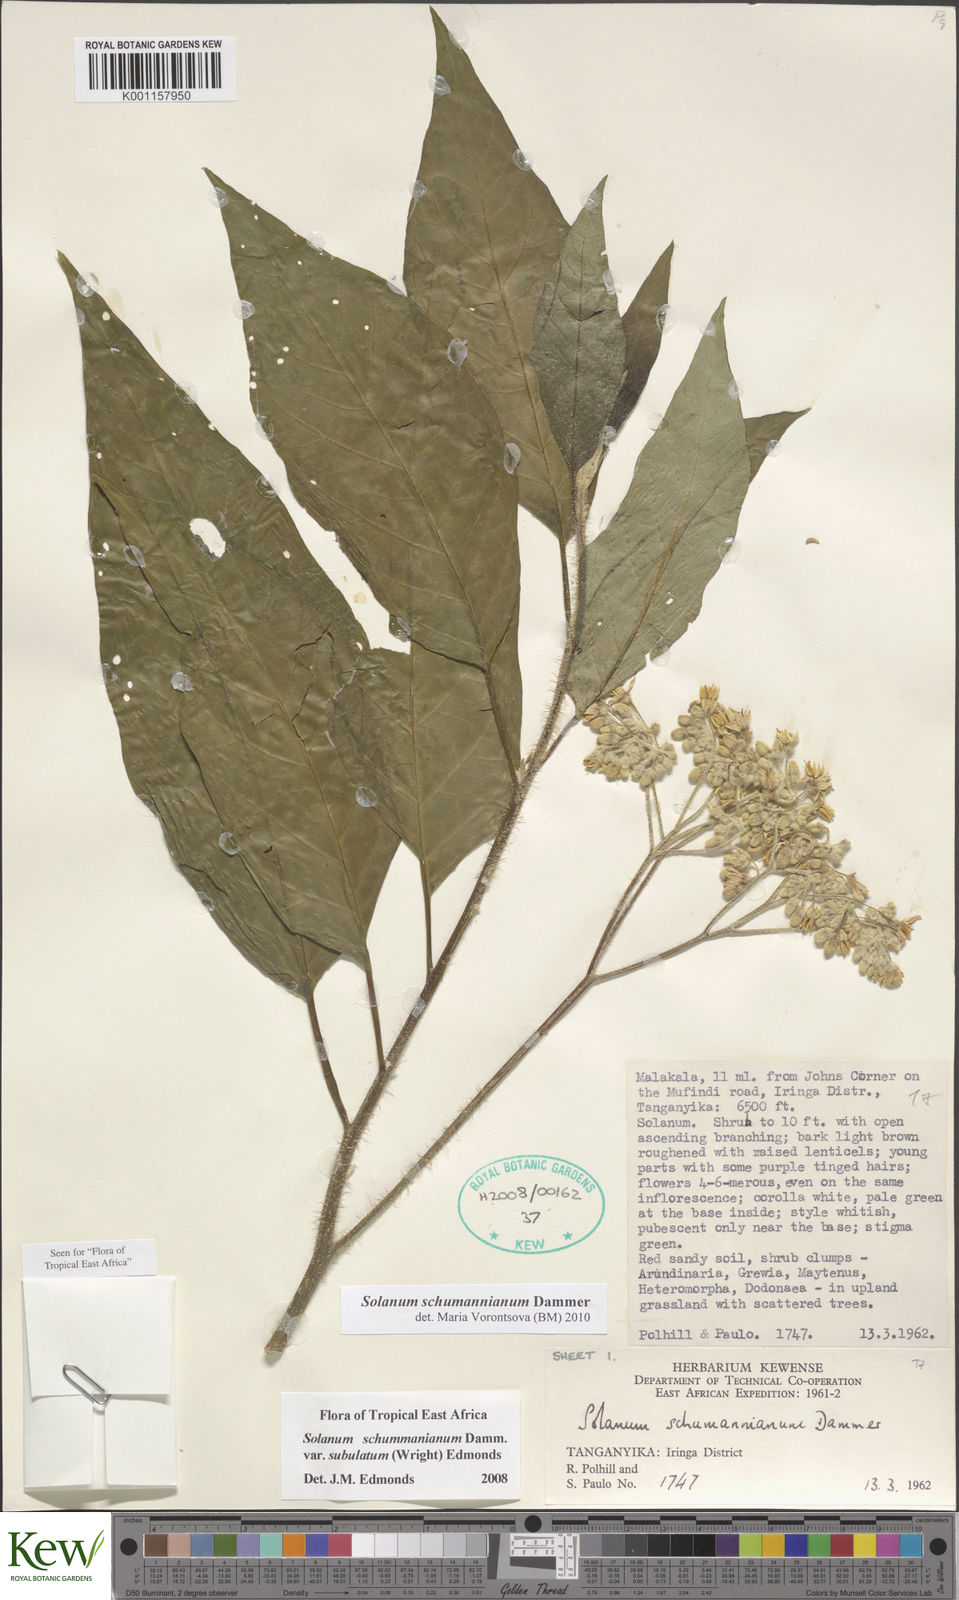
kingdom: Plantae
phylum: Tracheophyta
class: Magnoliopsida
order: Solanales
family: Solanaceae
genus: Solanum
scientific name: Solanum schumannianum
